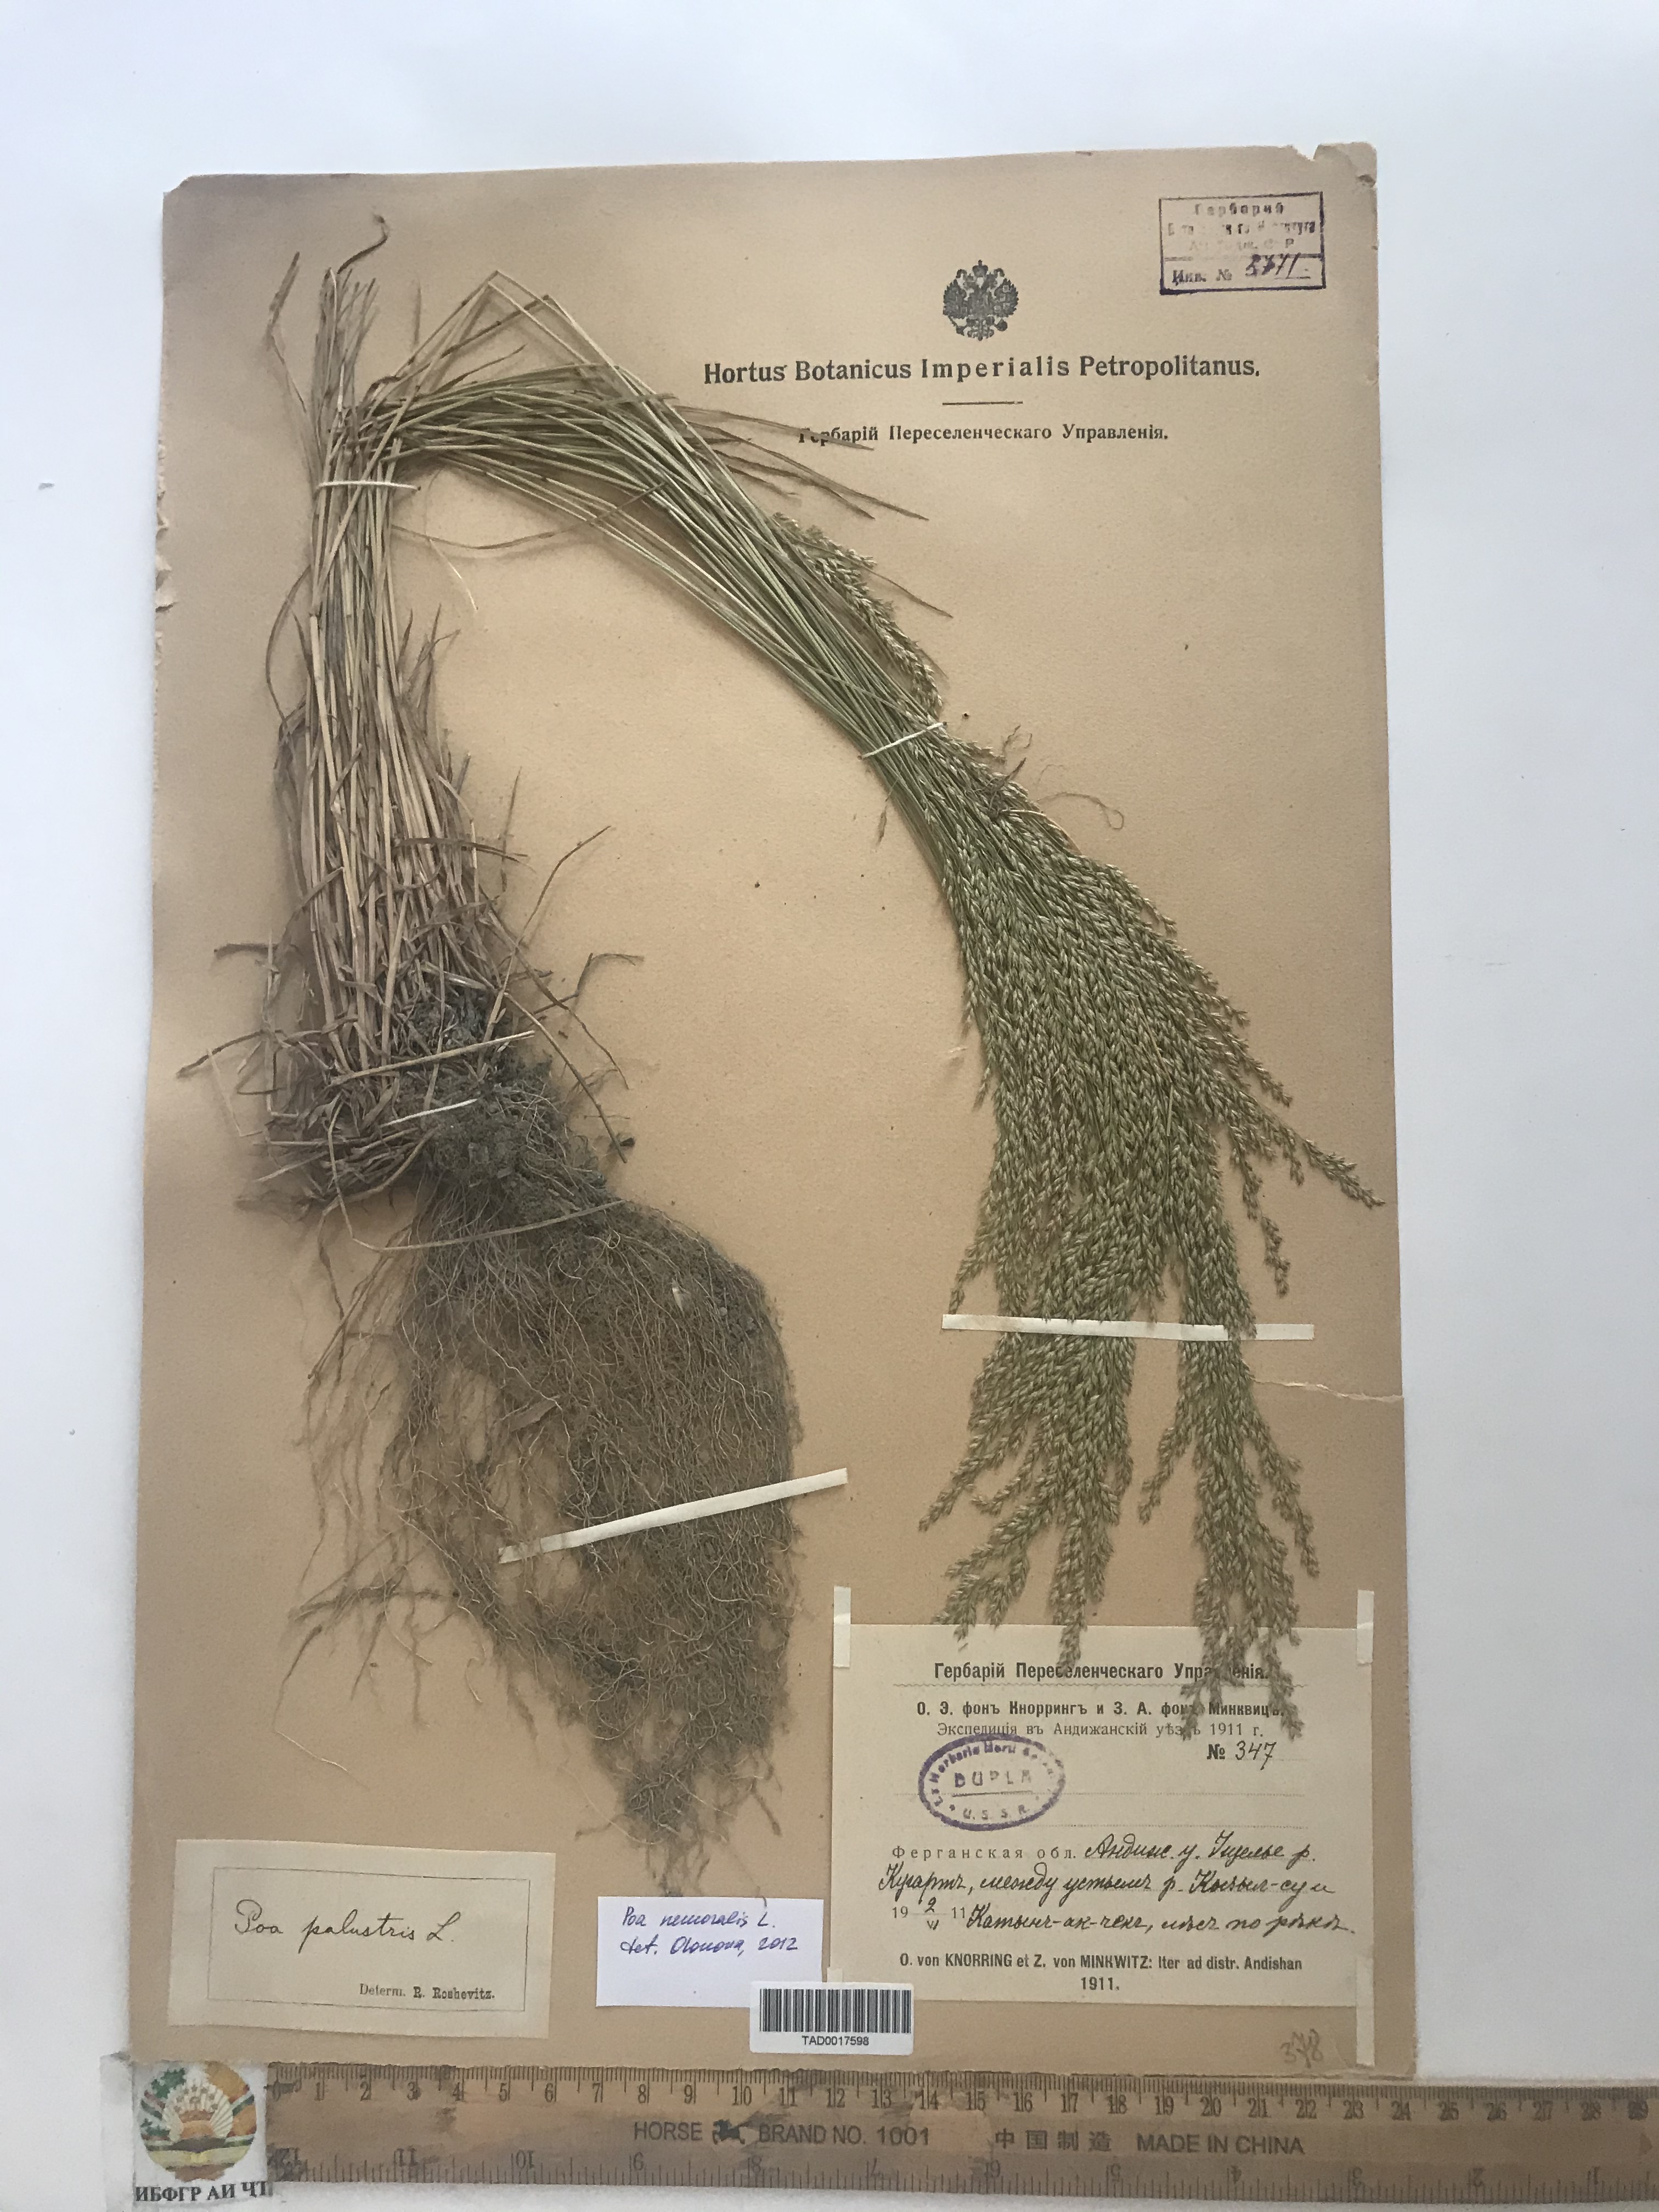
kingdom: Plantae
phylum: Tracheophyta
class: Liliopsida
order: Poales
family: Poaceae
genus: Poa
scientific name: Poa nemoralis
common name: Wood bluegrass
